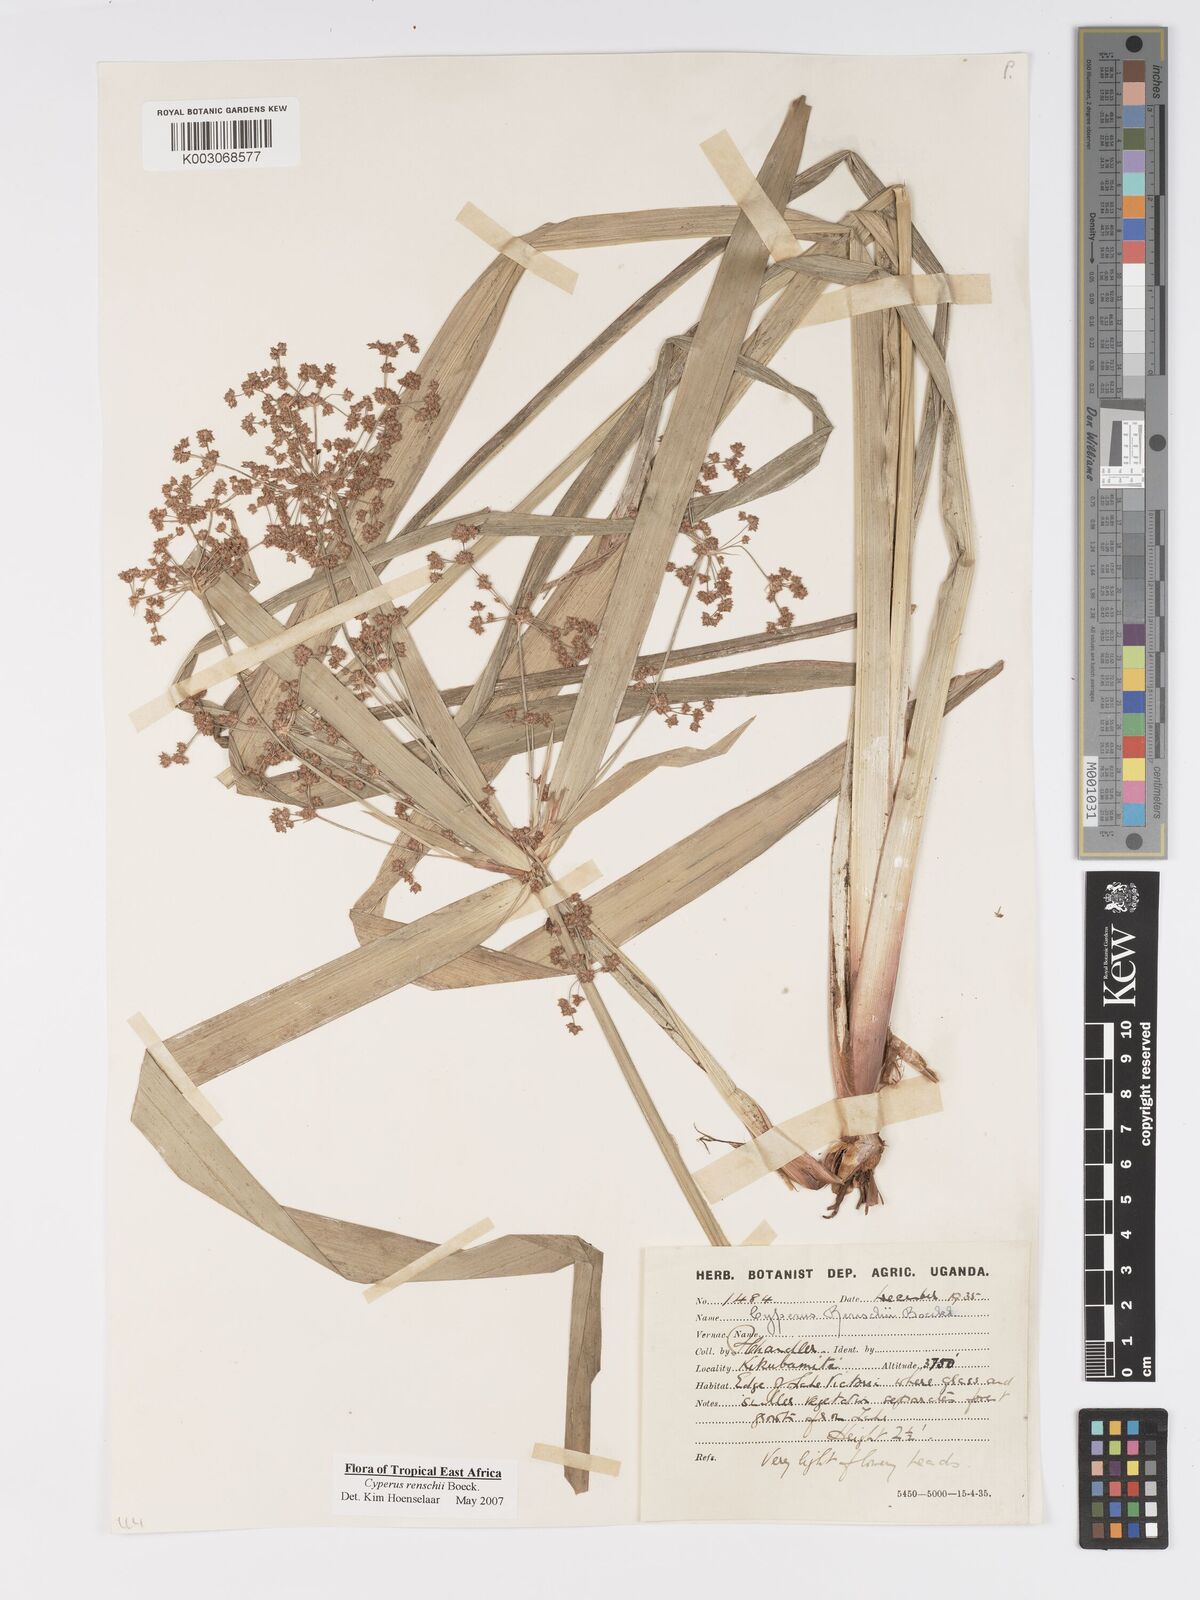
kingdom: Plantae
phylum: Tracheophyta
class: Liliopsida
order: Poales
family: Cyperaceae
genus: Cyperus
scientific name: Cyperus renschii
